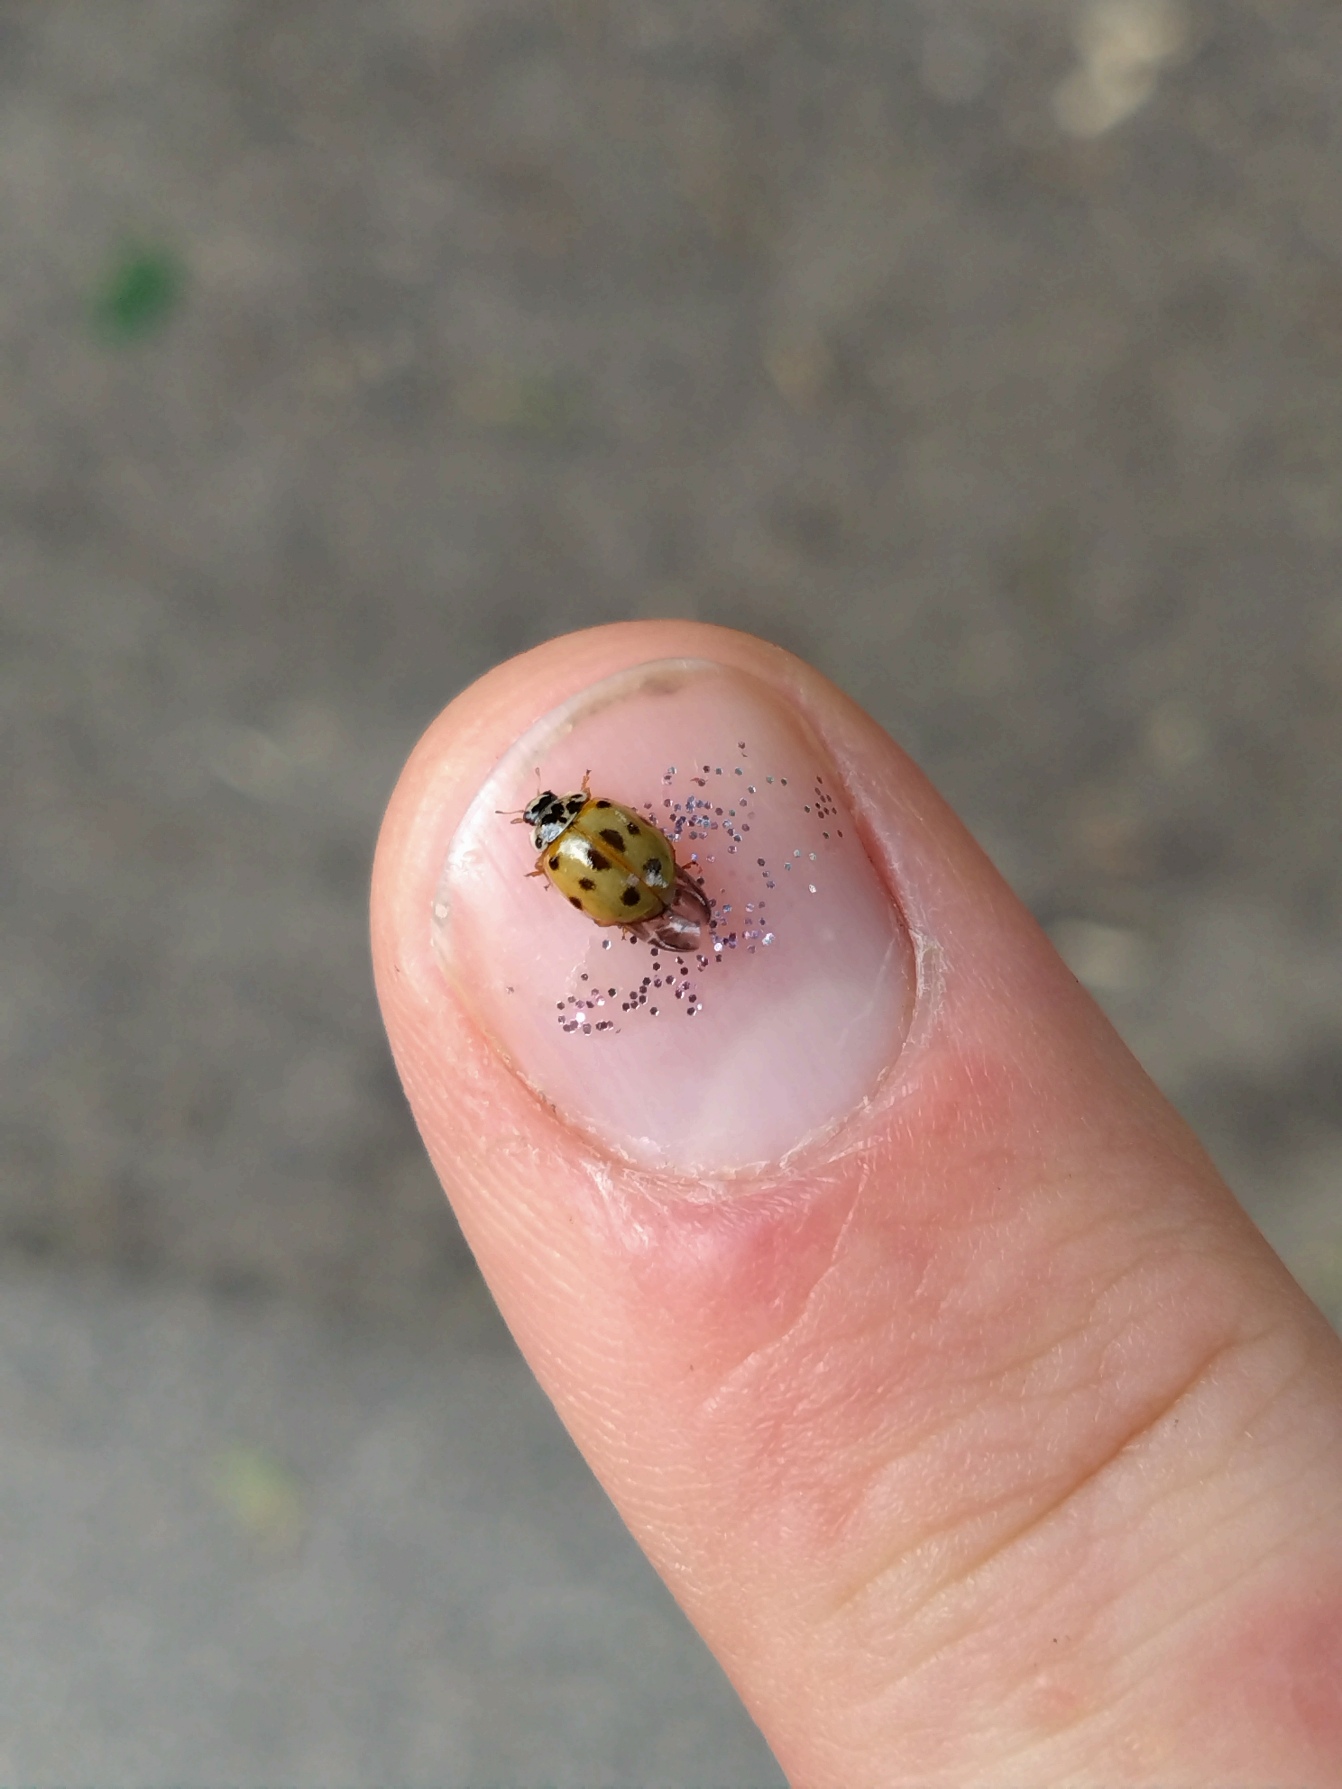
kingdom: Animalia
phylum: Arthropoda
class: Insecta
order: Coleoptera
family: Coccinellidae
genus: Adalia
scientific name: Adalia decempunctata
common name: Tiplettet mariehøne
